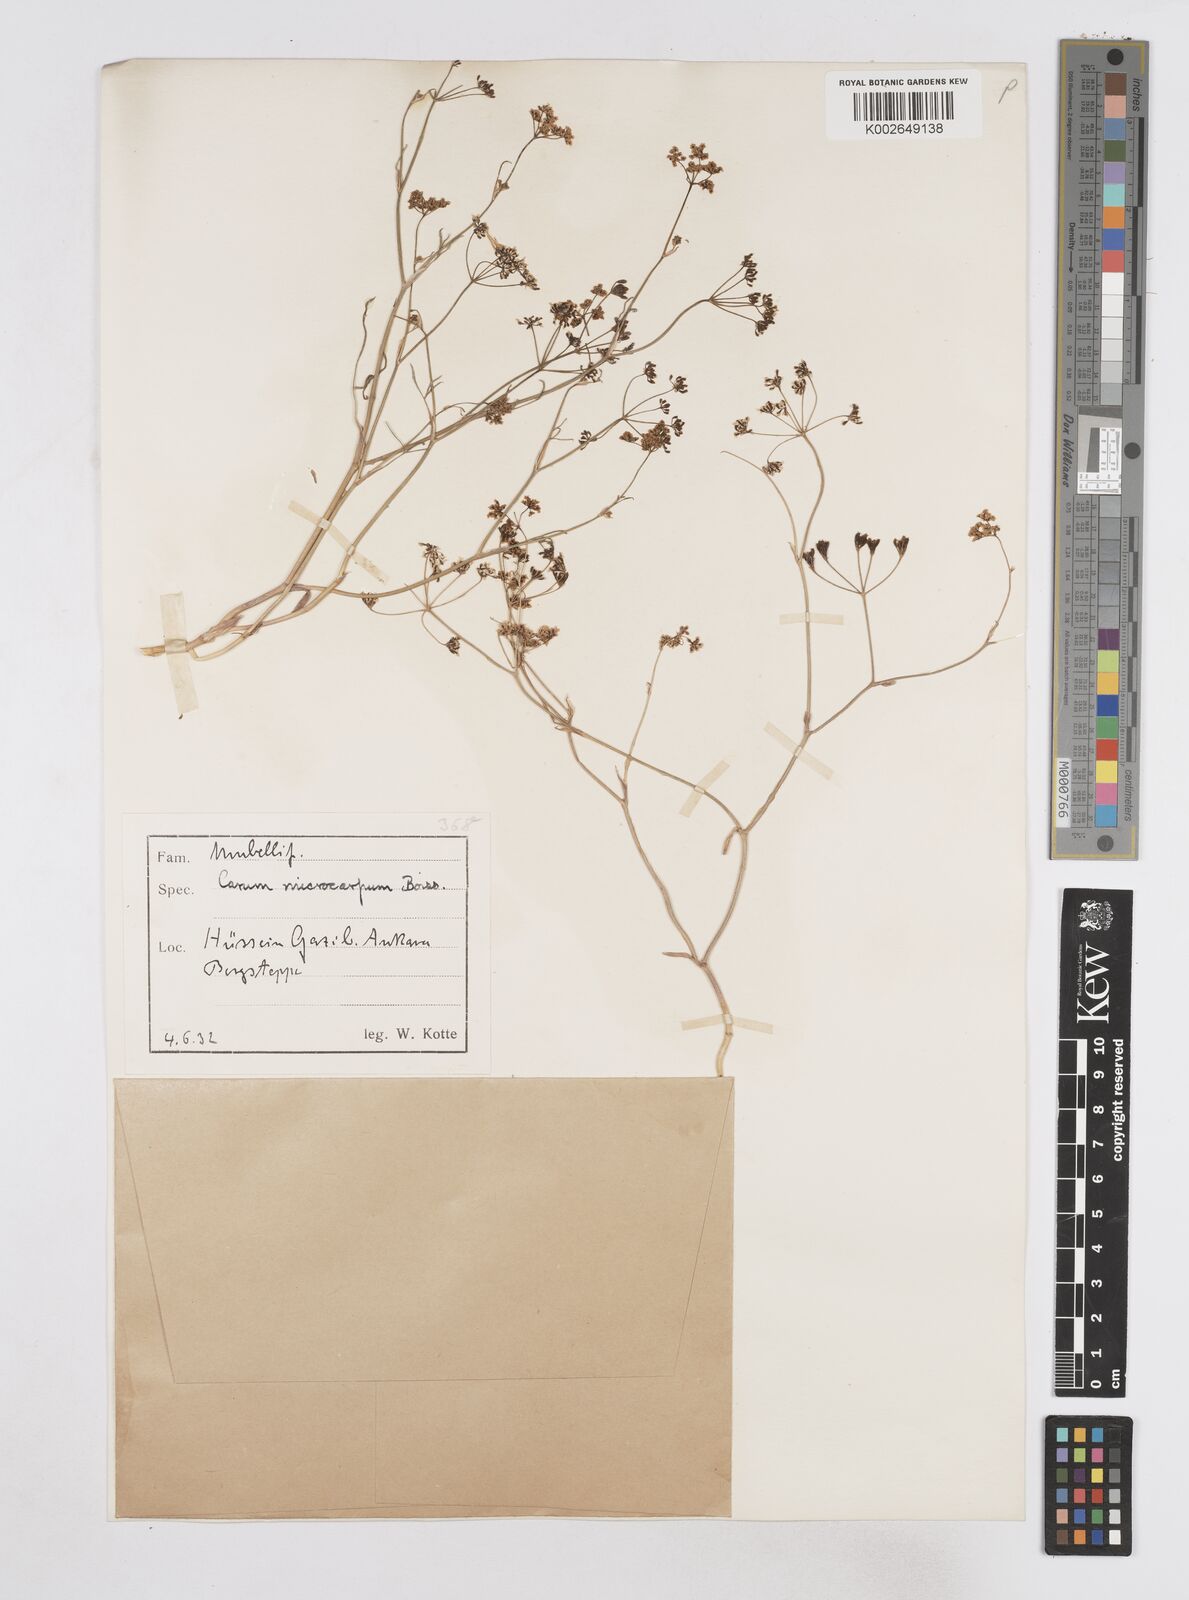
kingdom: Plantae
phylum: Tracheophyta
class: Magnoliopsida
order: Apiales
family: Apiaceae
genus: Bunium
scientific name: Bunium microcarpum
